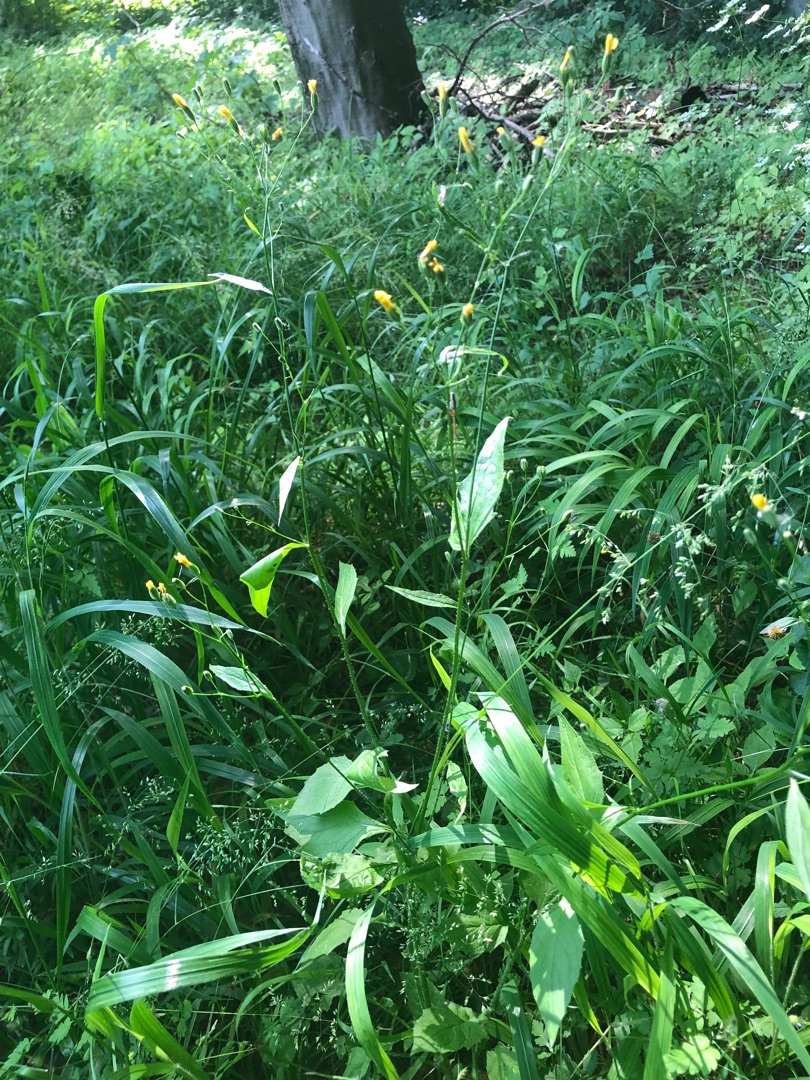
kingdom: Plantae
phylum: Tracheophyta
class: Magnoliopsida
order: Asterales
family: Asteraceae
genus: Lapsana
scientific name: Lapsana communis
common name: Haremad
